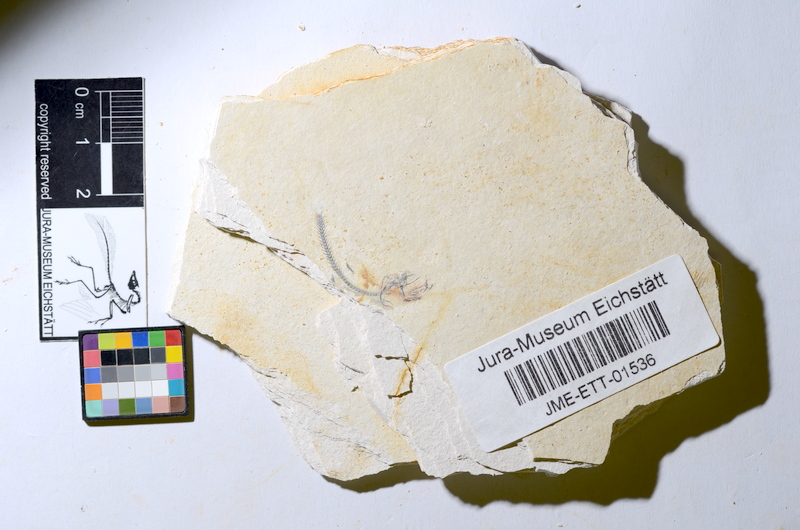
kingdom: Animalia
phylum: Chordata
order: Salmoniformes
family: Orthogonikleithridae
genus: Orthogonikleithrus
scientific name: Orthogonikleithrus hoelli
